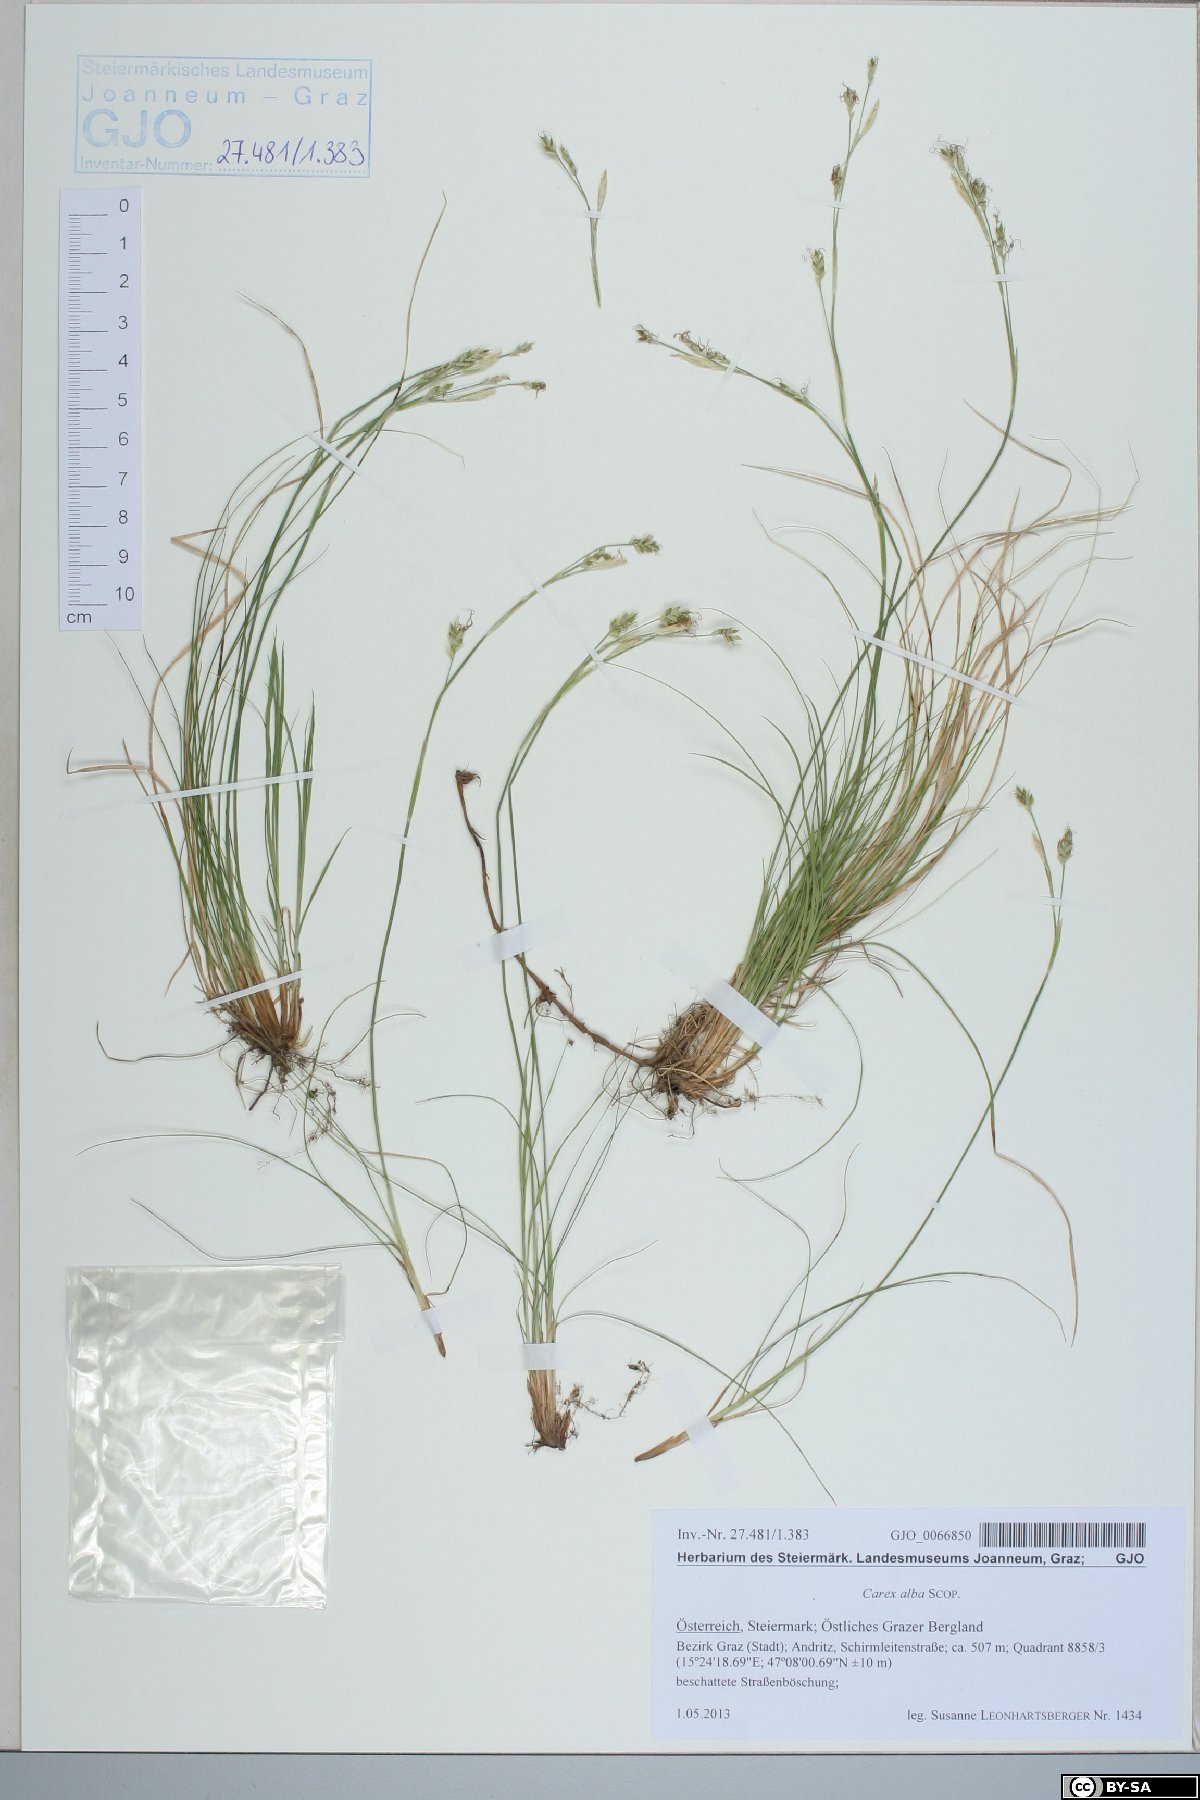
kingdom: Plantae
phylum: Tracheophyta
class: Liliopsida
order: Poales
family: Cyperaceae
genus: Carex
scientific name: Carex alba
